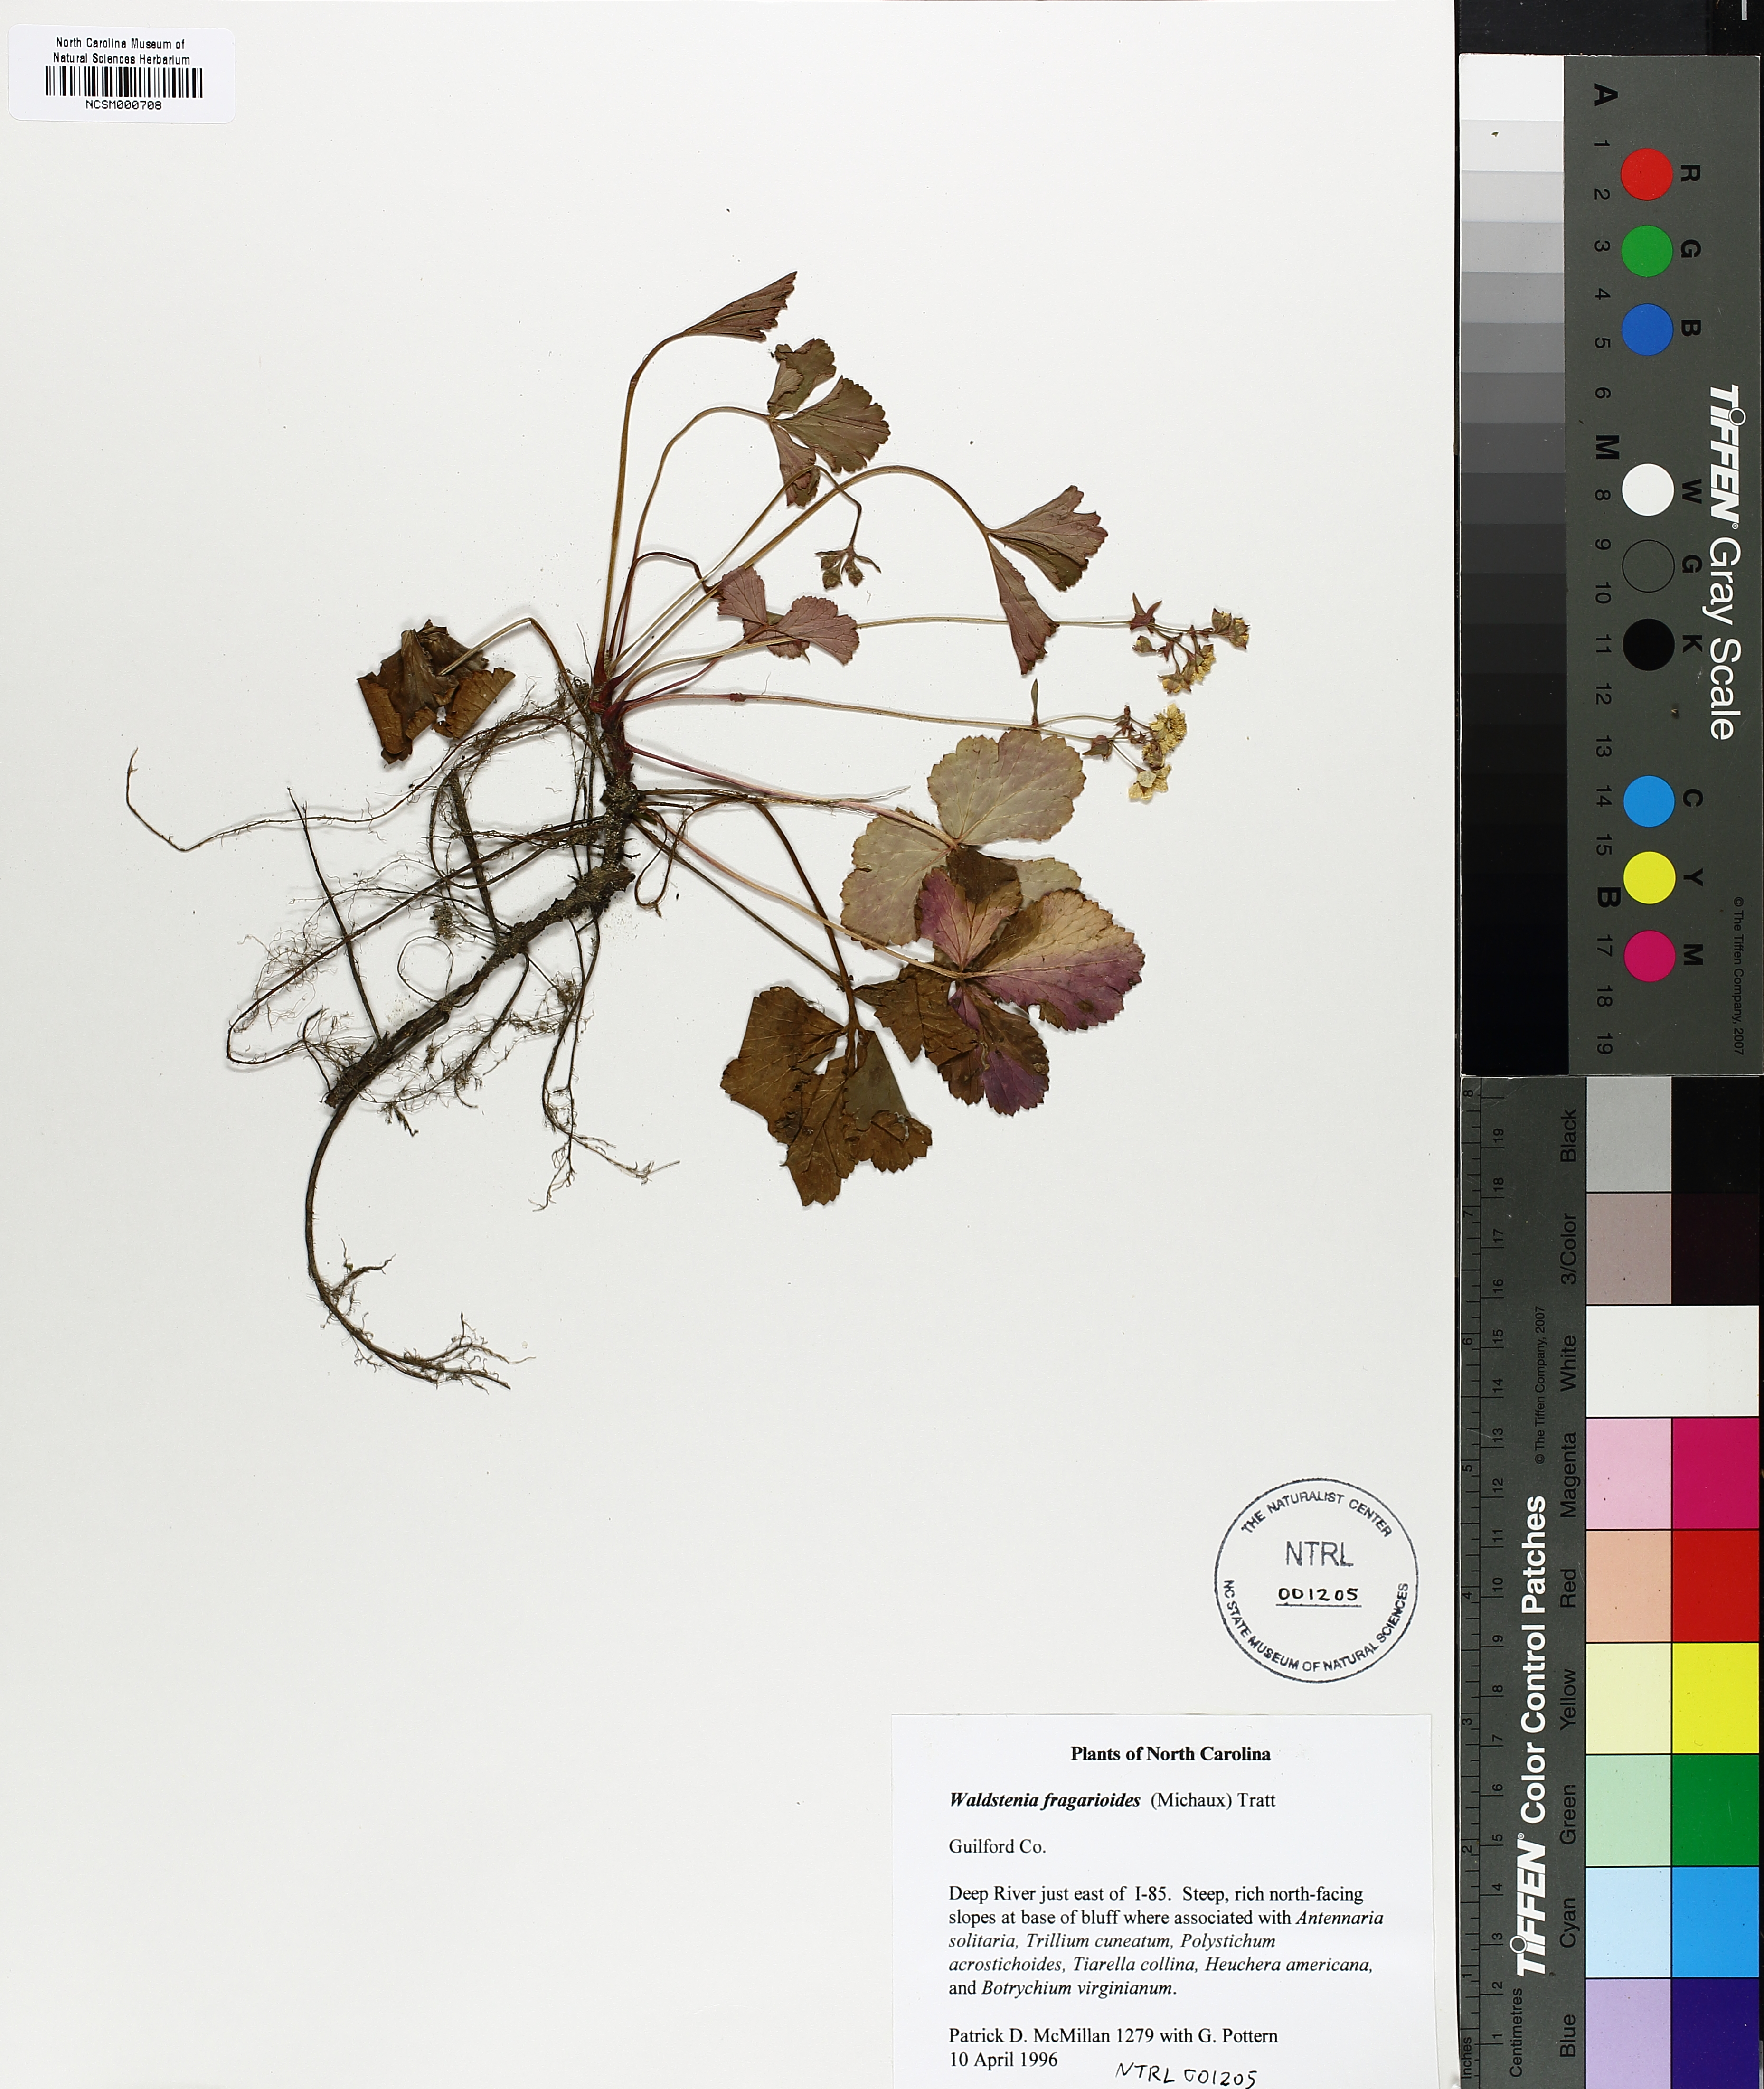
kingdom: Plantae
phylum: Tracheophyta
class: Magnoliopsida
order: Rosales
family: Rosaceae
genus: Geum
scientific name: Geum fragarioides
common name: Appalachian barren strawberry
